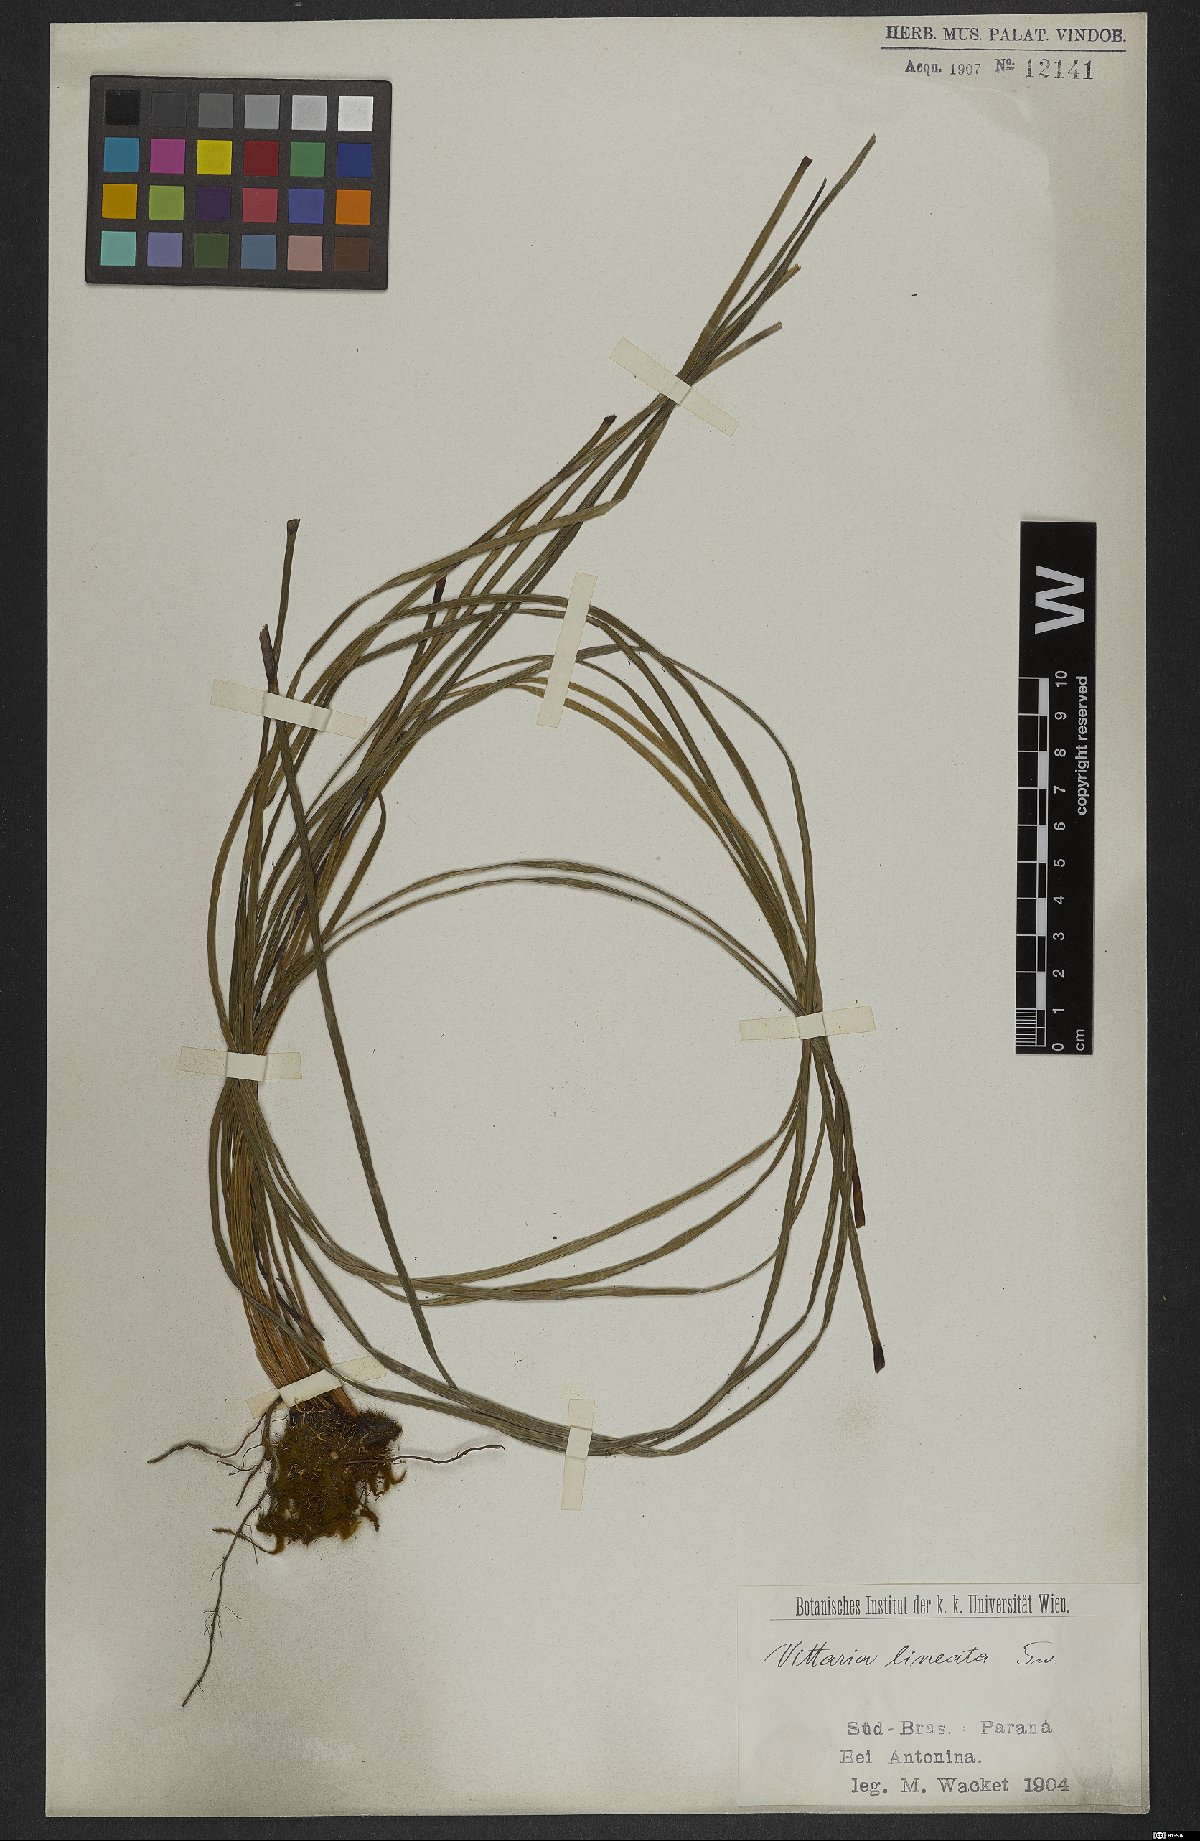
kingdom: Plantae
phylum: Tracheophyta
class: Polypodiopsida
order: Polypodiales
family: Pteridaceae
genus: Vittaria
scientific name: Vittaria lineata
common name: Shoestring fern
